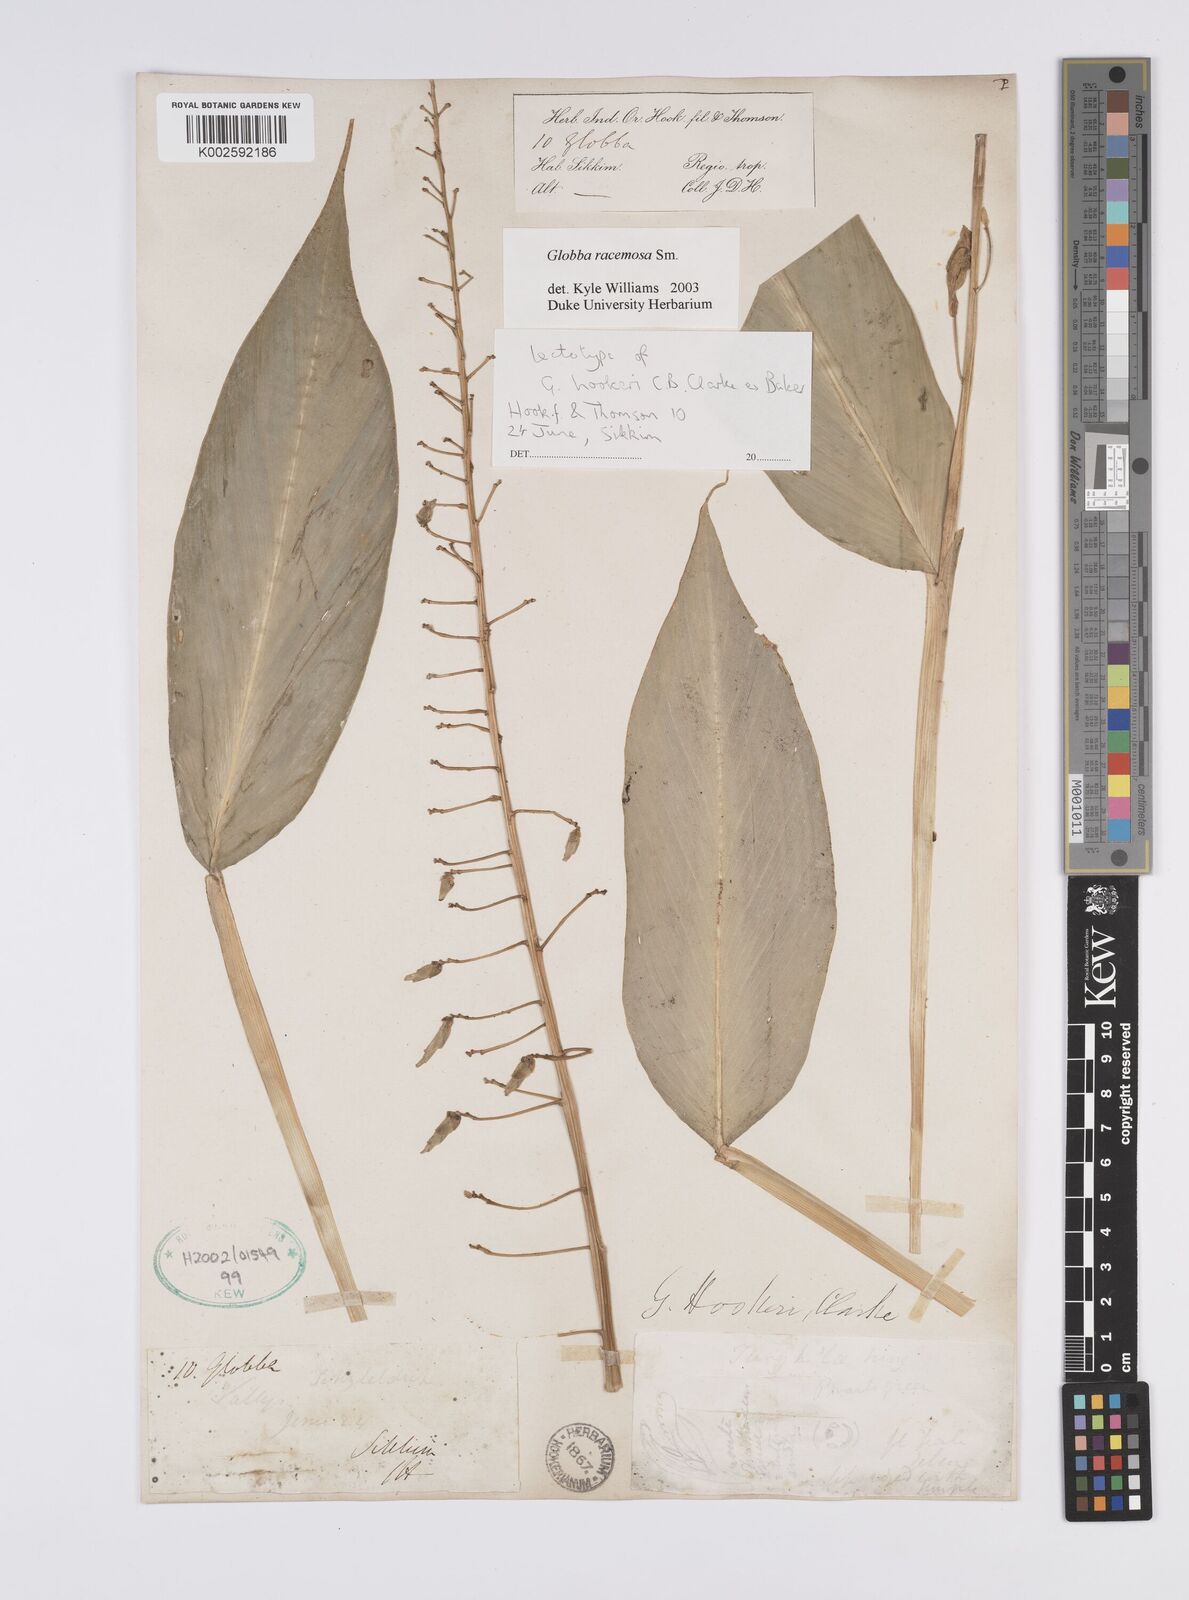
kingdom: Plantae
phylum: Tracheophyta
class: Liliopsida
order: Zingiberales
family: Zingiberaceae
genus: Globba
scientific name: Globba racemosa
